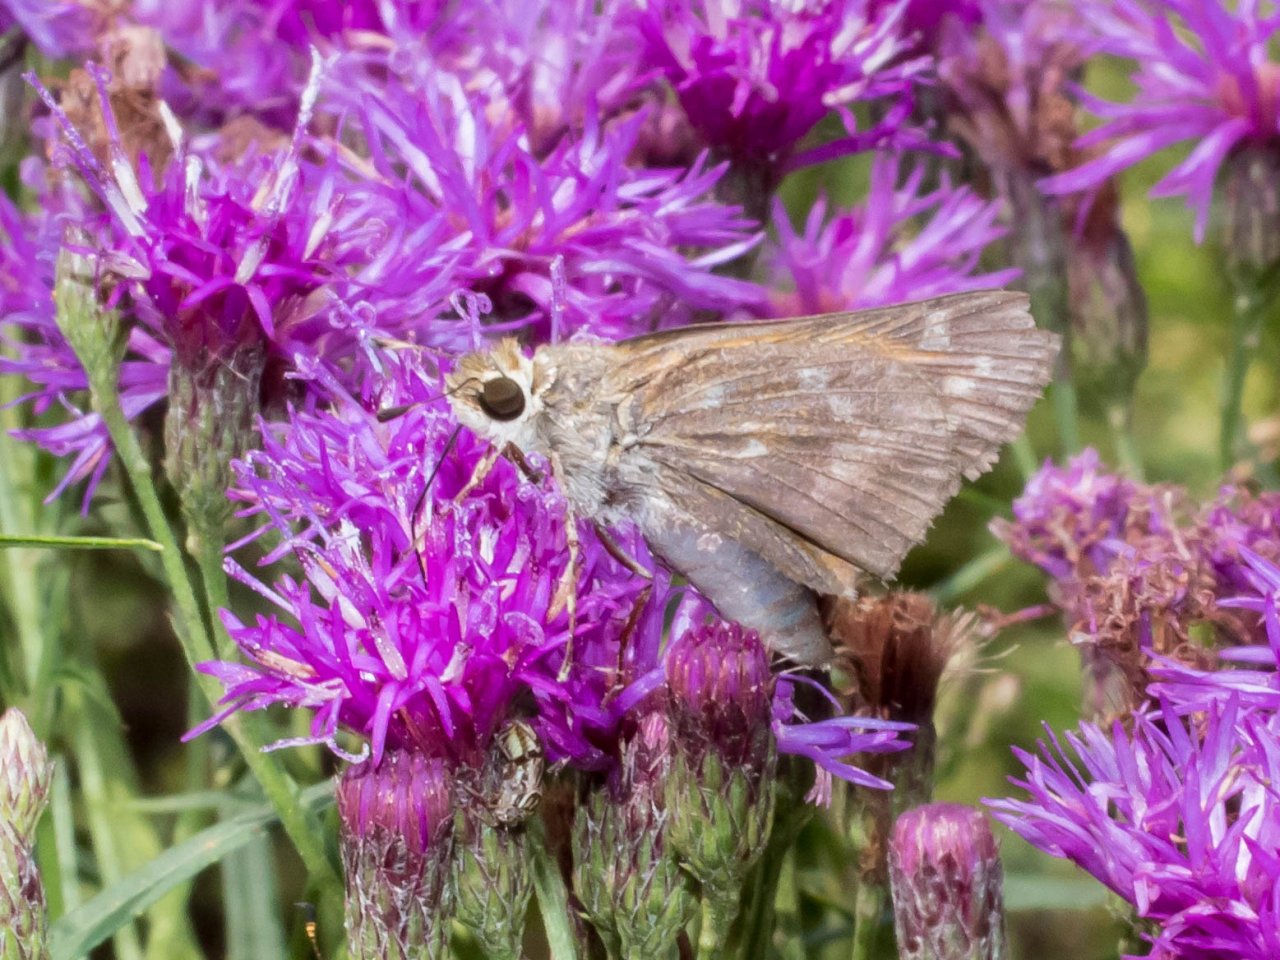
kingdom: Animalia
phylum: Arthropoda
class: Insecta
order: Lepidoptera
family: Hesperiidae
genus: Atalopedes
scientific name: Atalopedes campestris
